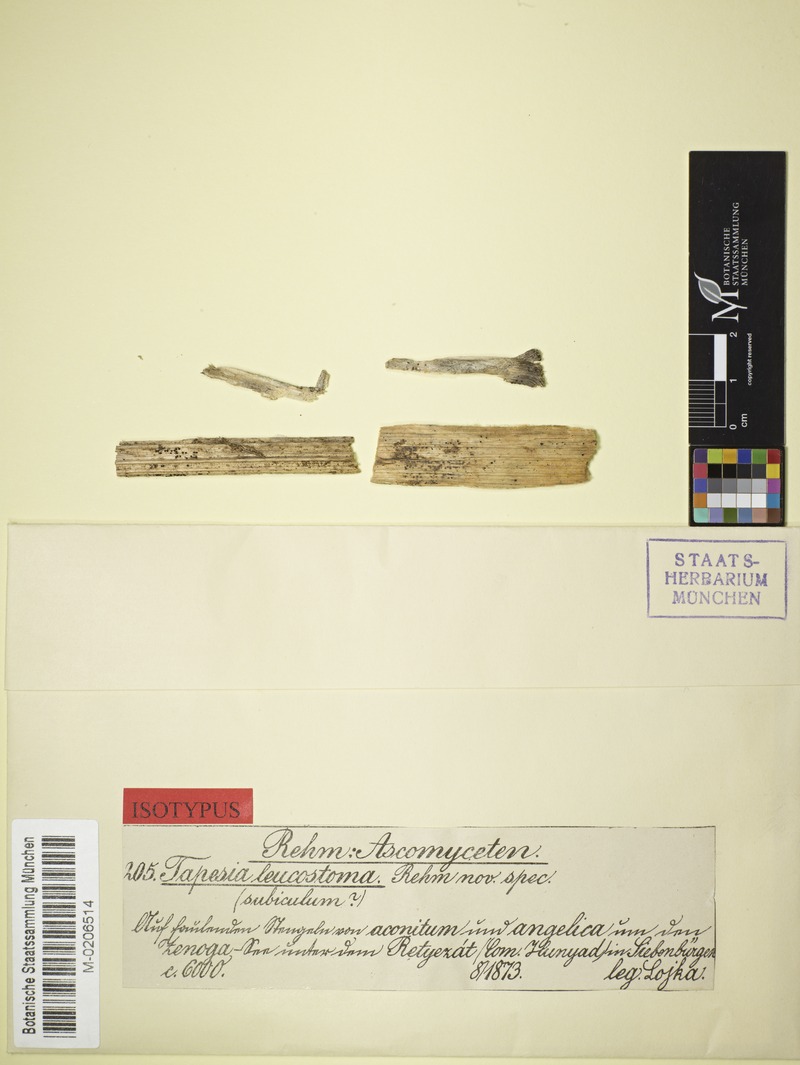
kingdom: Fungi
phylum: Ascomycota
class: Leotiomycetes
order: Helotiales
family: Solenopeziaceae
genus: Solenopezia
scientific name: Solenopezia leucostoma
